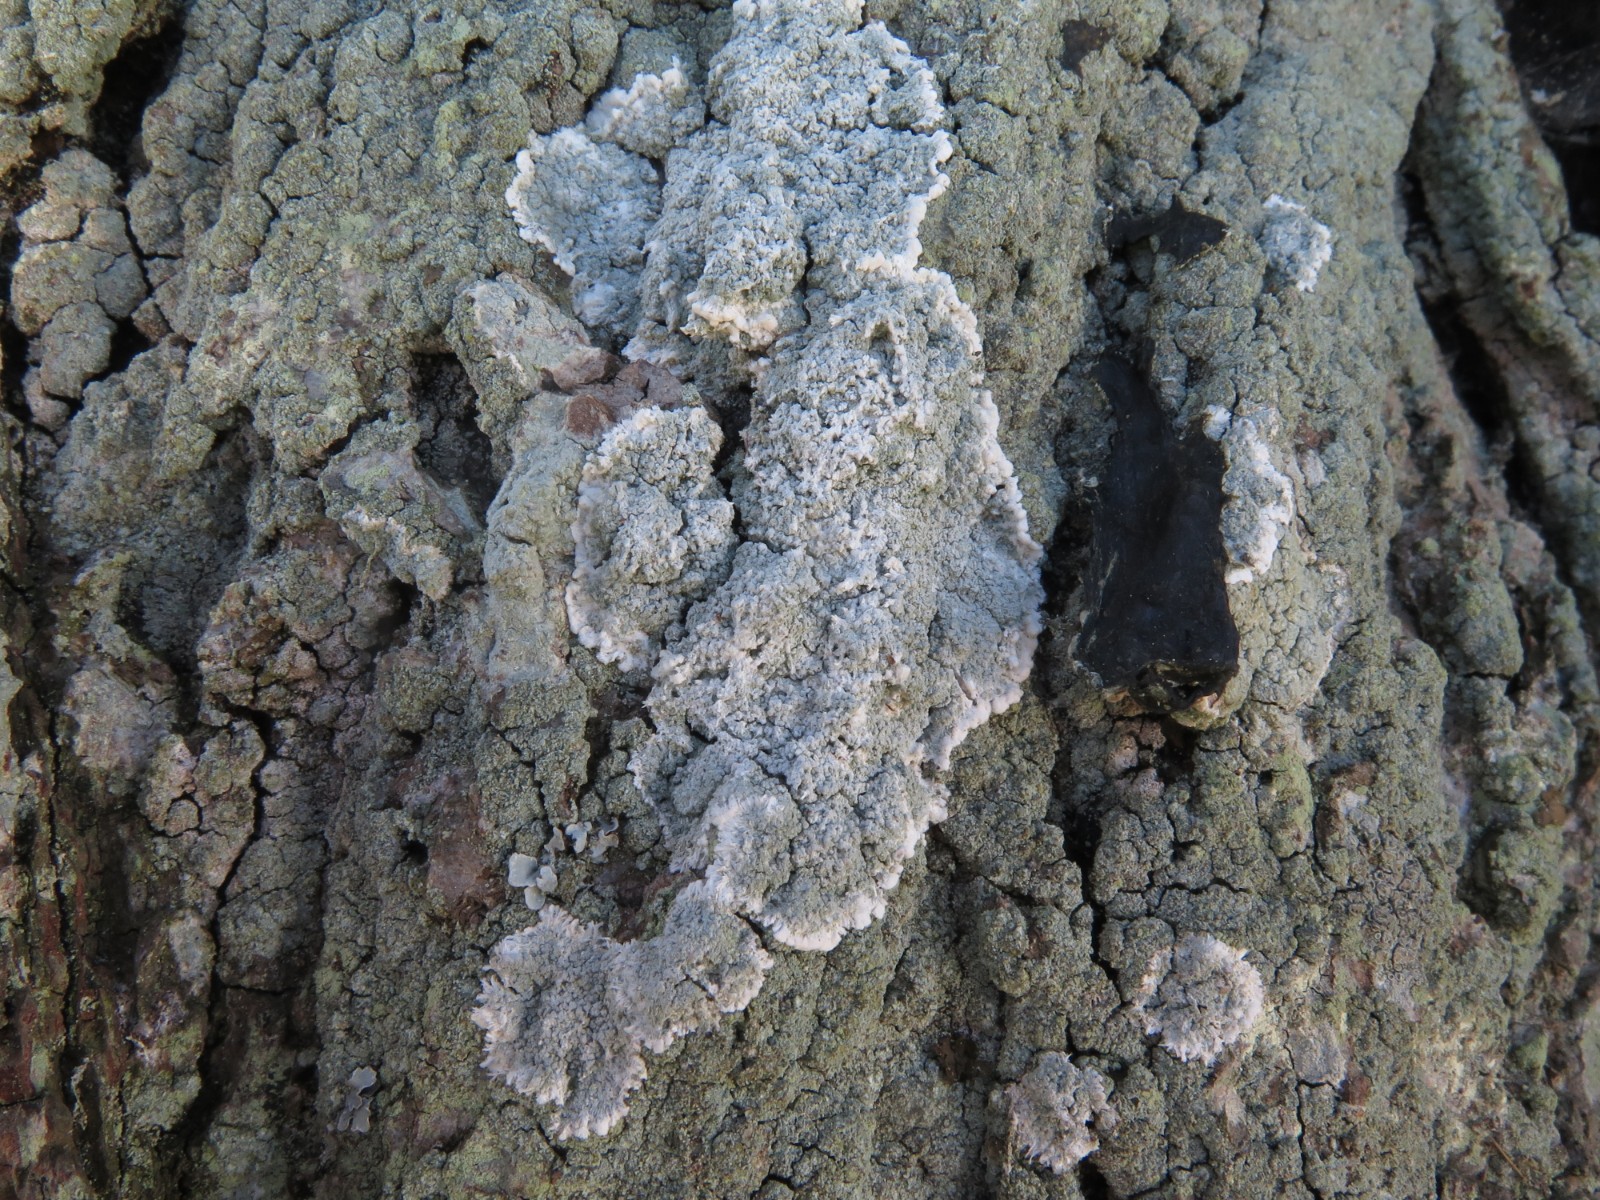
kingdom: Fungi
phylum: Ascomycota
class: Lecanoromycetes
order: Lecanorales
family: Haematommataceae
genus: Haematomma
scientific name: Haematomma ochroleucum
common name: gul trådkantlav
